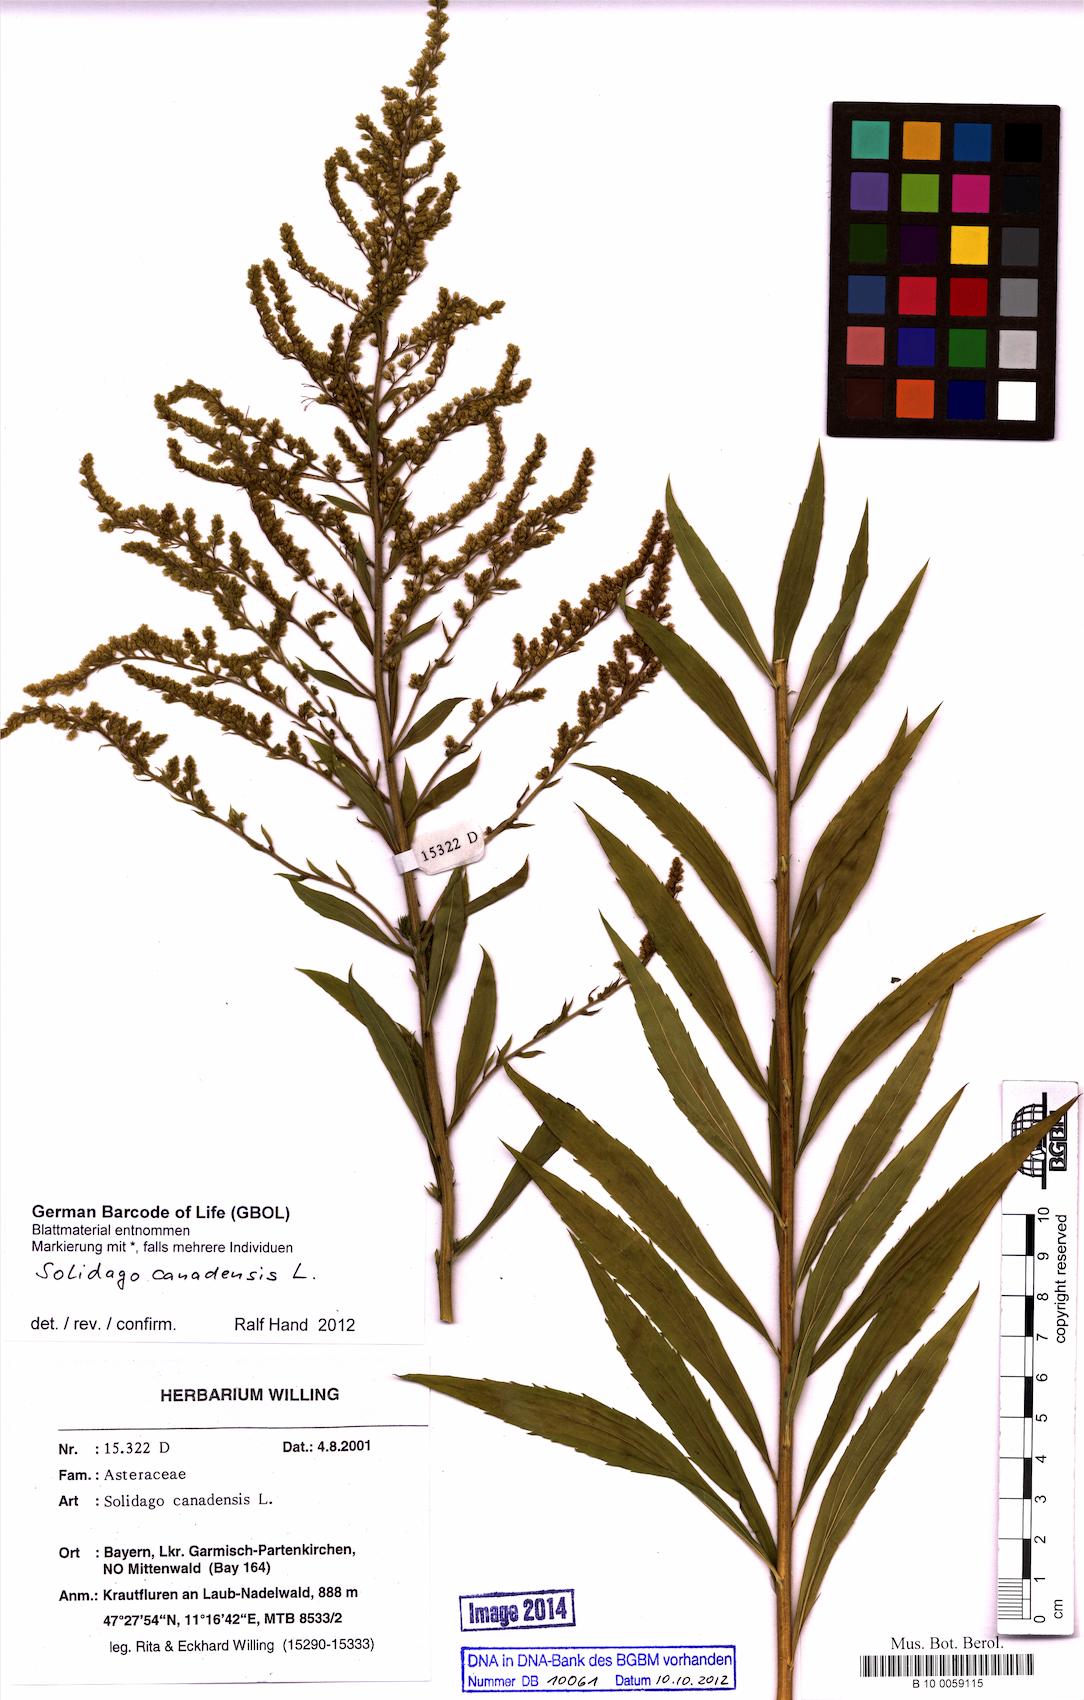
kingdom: Plantae
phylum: Tracheophyta
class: Magnoliopsida
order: Asterales
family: Asteraceae
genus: Solidago
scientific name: Solidago canadensis
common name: Canada goldenrod
